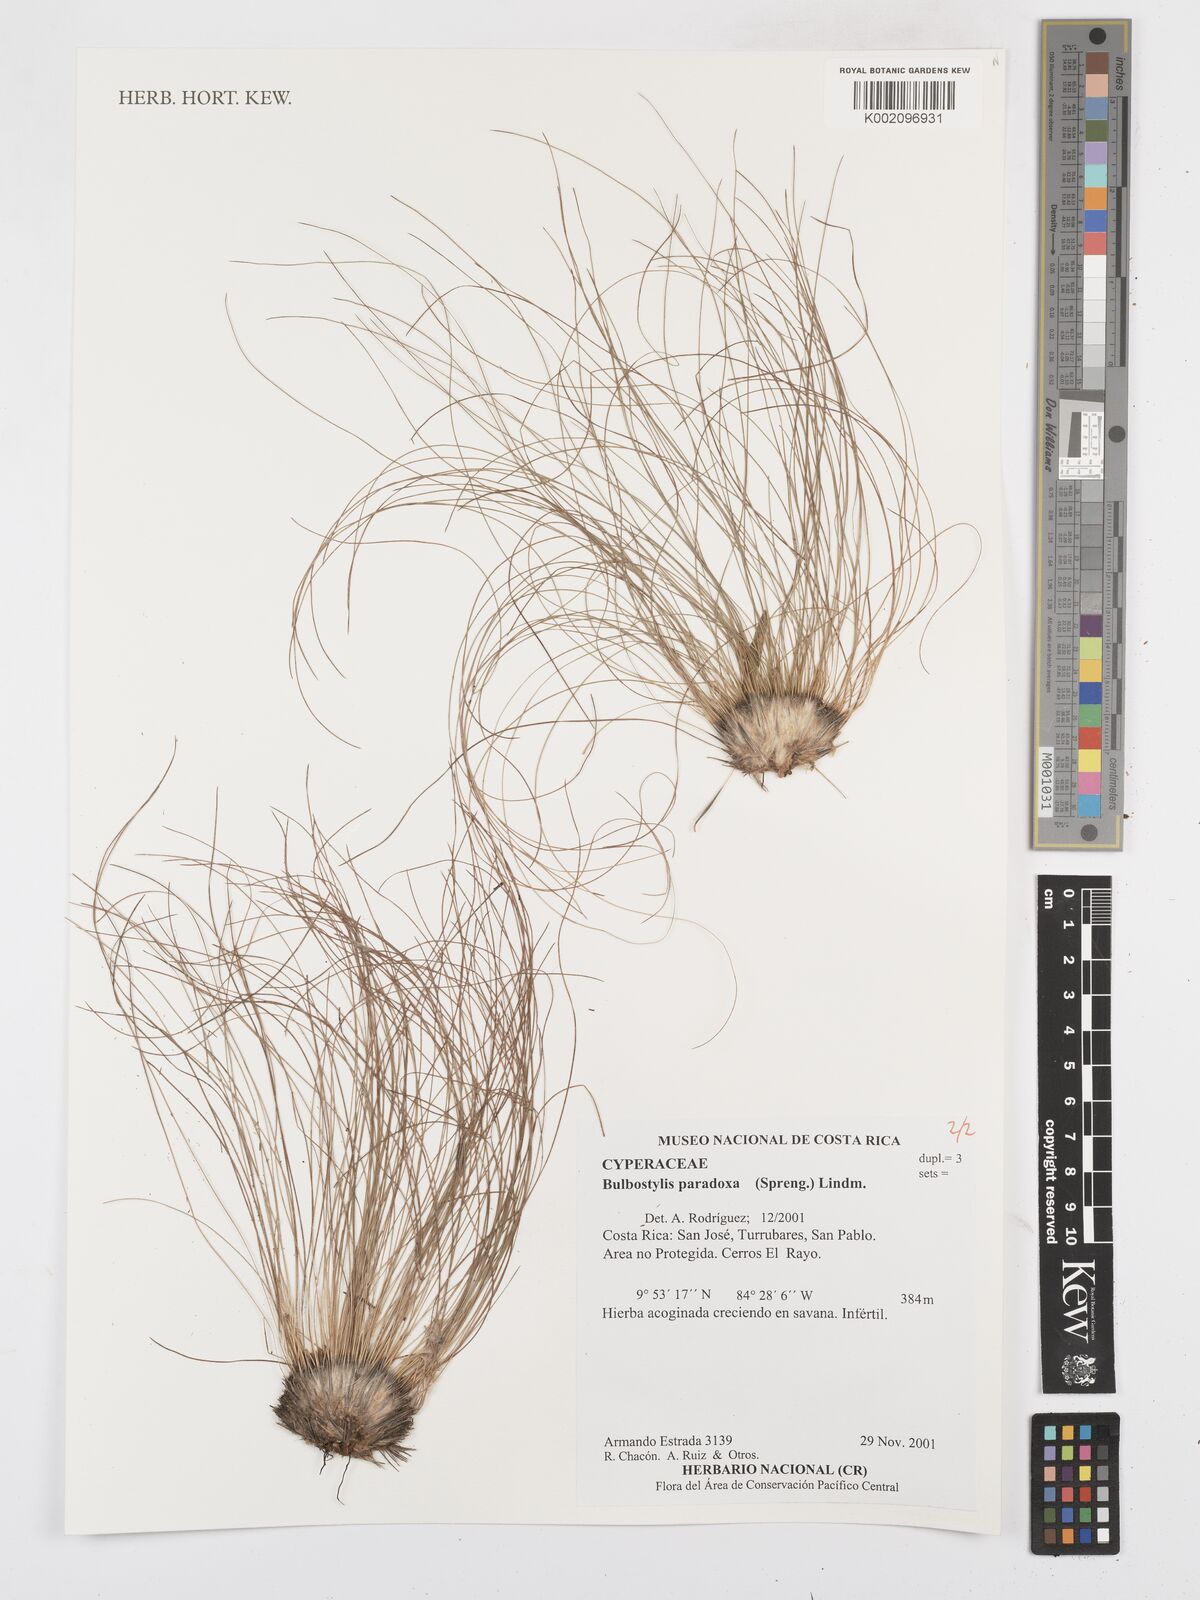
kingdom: Plantae
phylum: Tracheophyta
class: Liliopsida
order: Poales
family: Cyperaceae
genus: Bulbostylis
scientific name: Bulbostylis paradoxa
